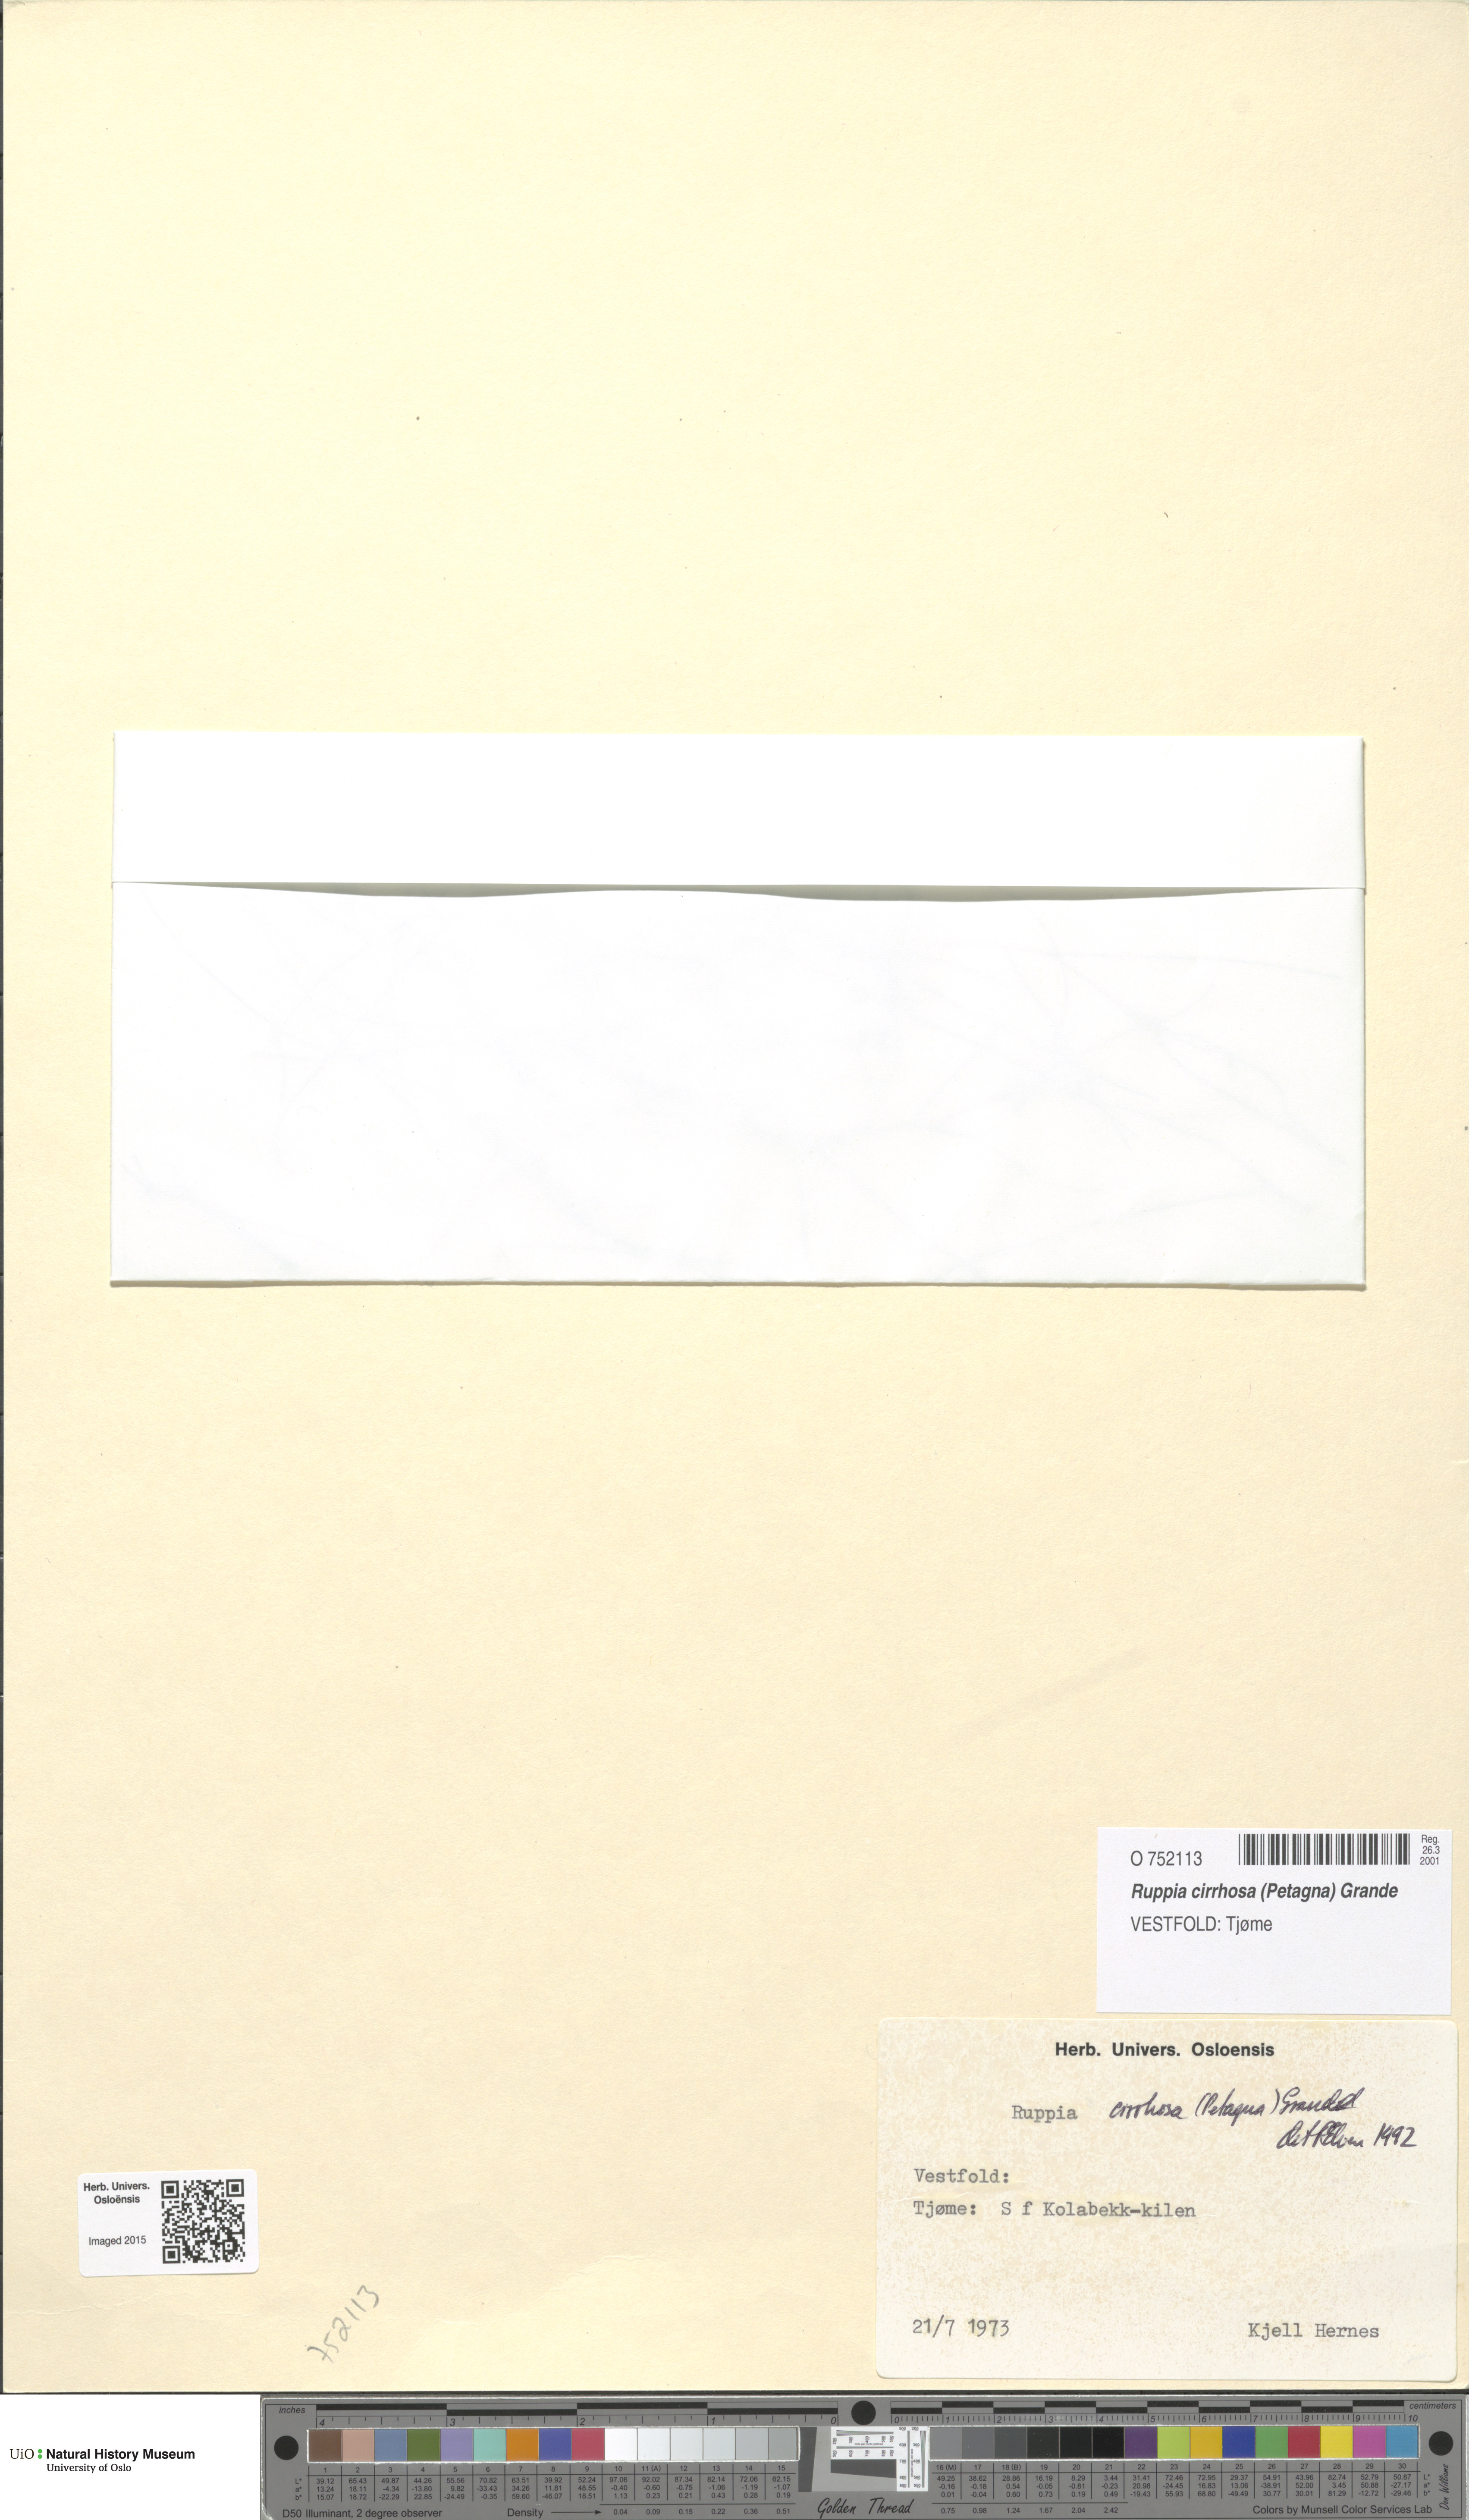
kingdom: Plantae
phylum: Tracheophyta
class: Liliopsida
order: Alismatales
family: Ruppiaceae
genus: Ruppia
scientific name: Ruppia cirrhosa
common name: Spiral tasselweed
